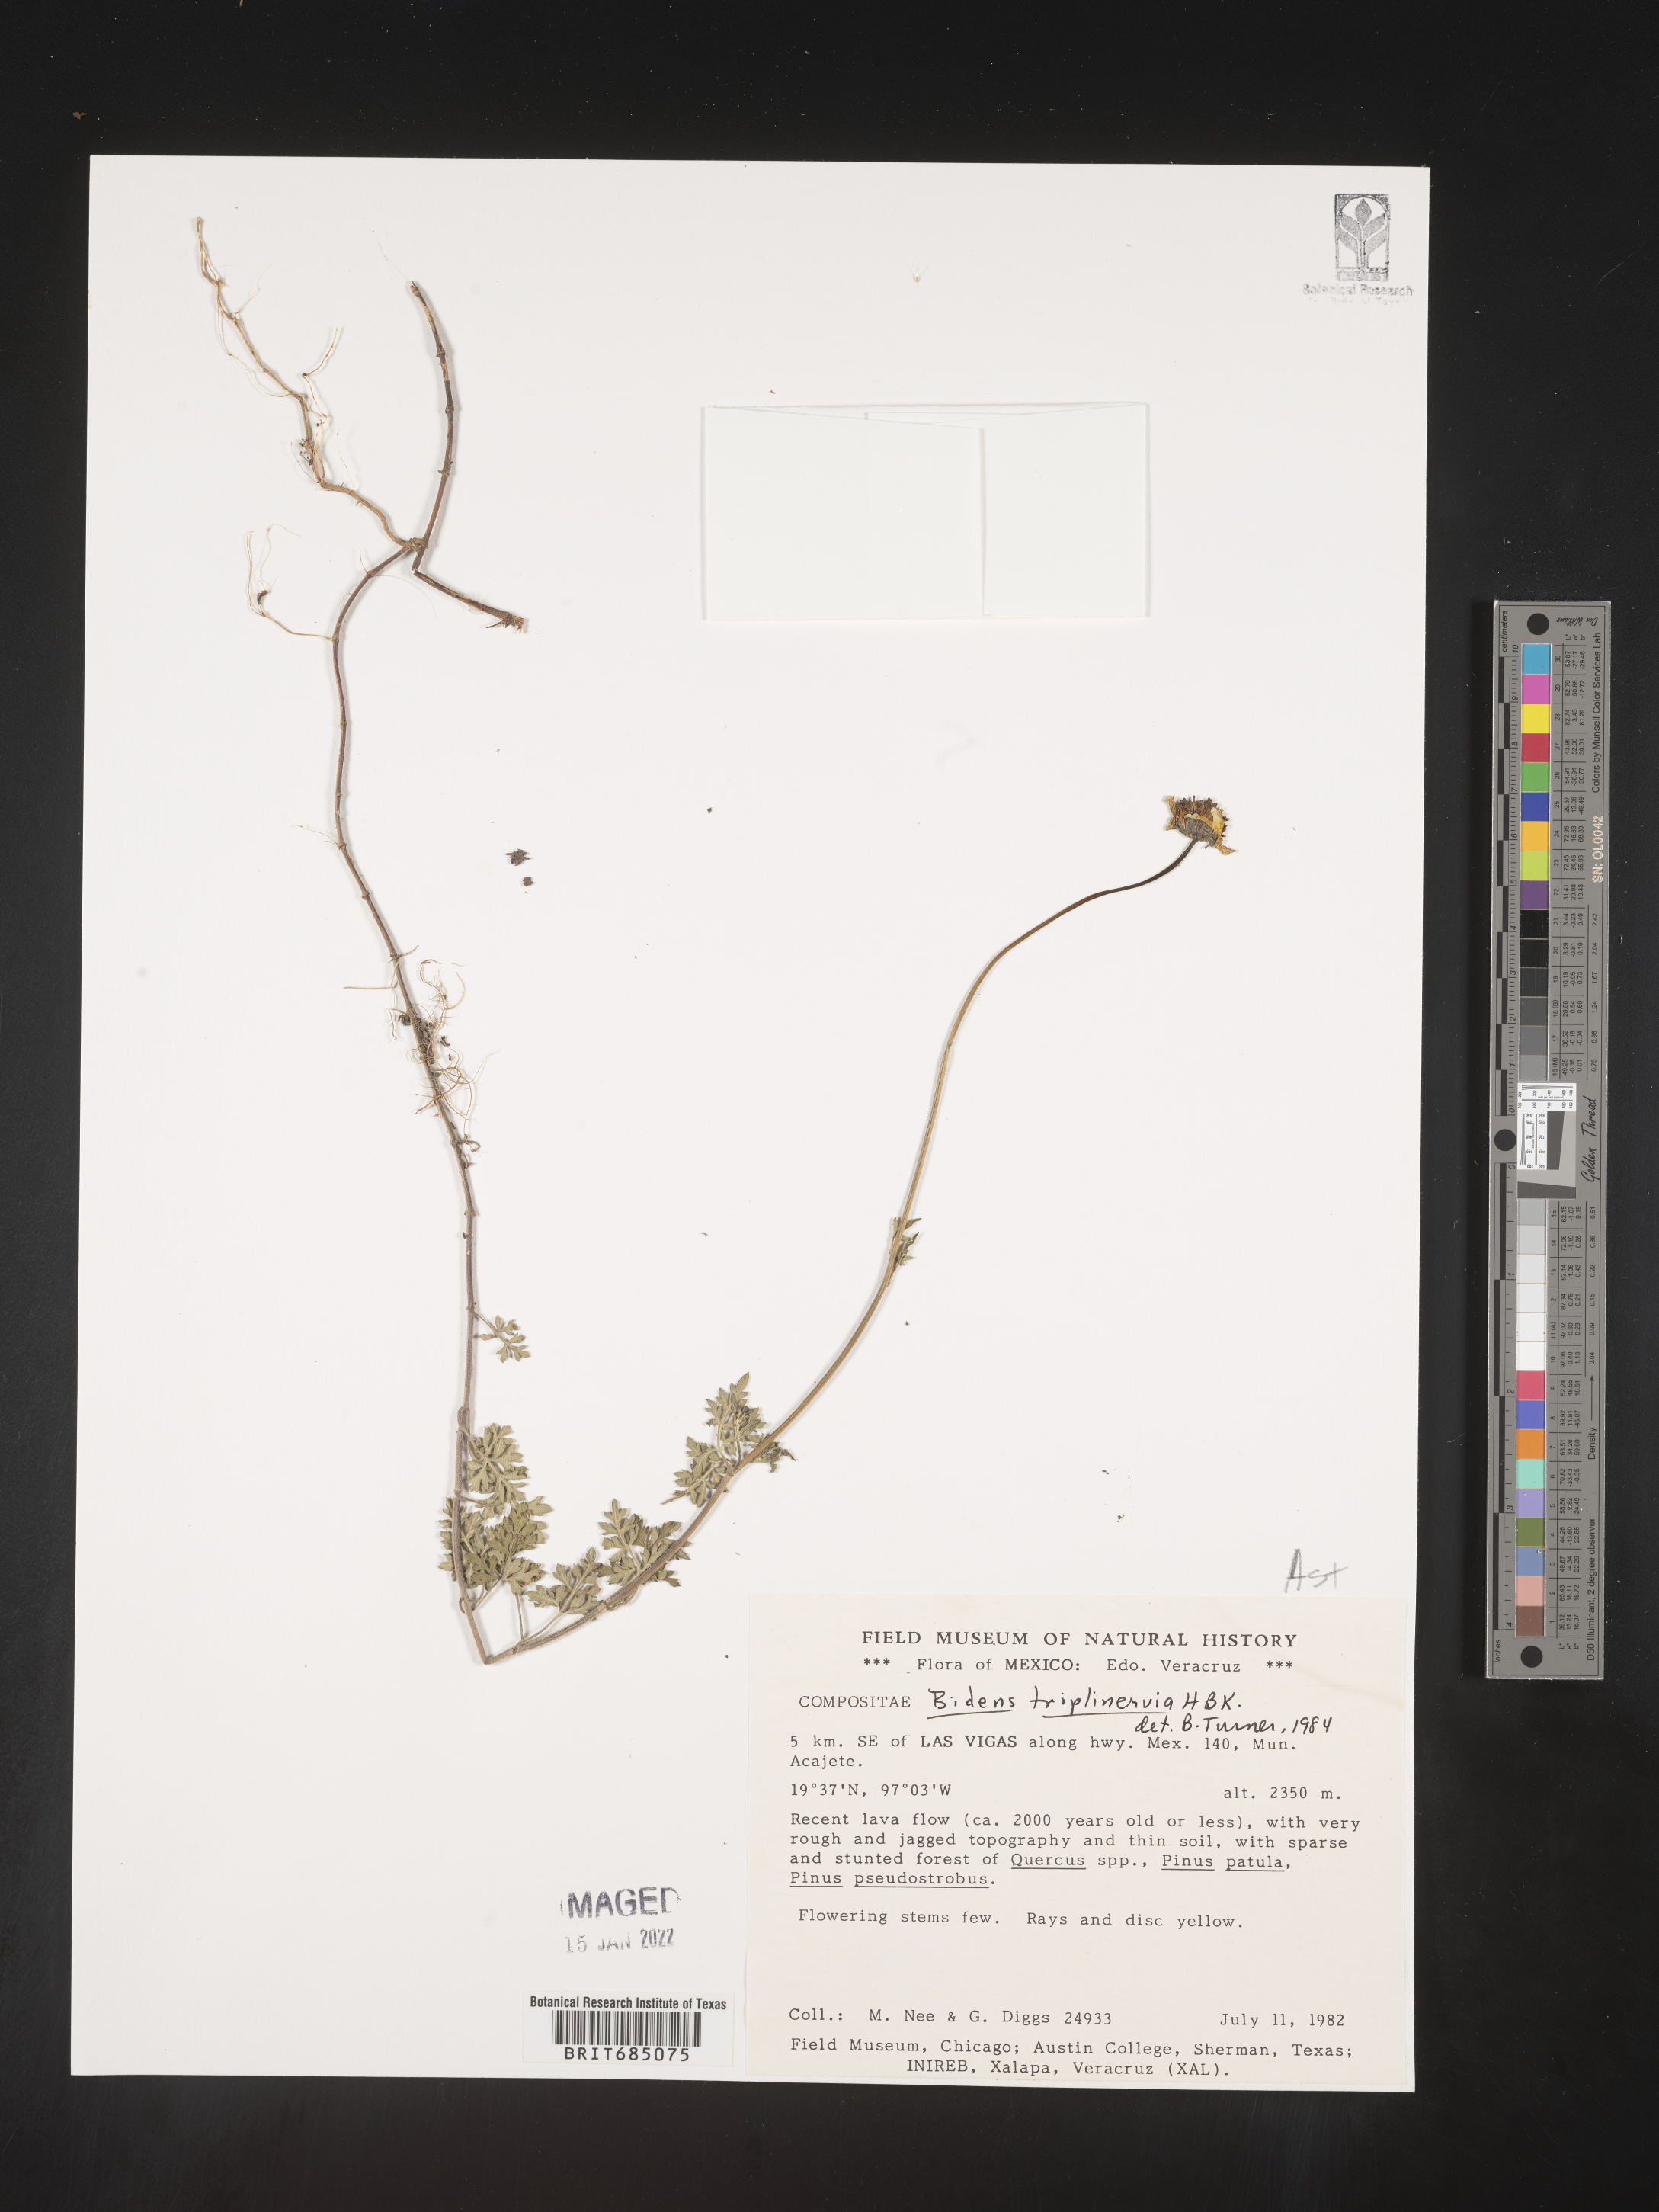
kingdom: Plantae
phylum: Tracheophyta
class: Magnoliopsida
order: Asterales
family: Asteraceae
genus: Bidens
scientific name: Bidens
